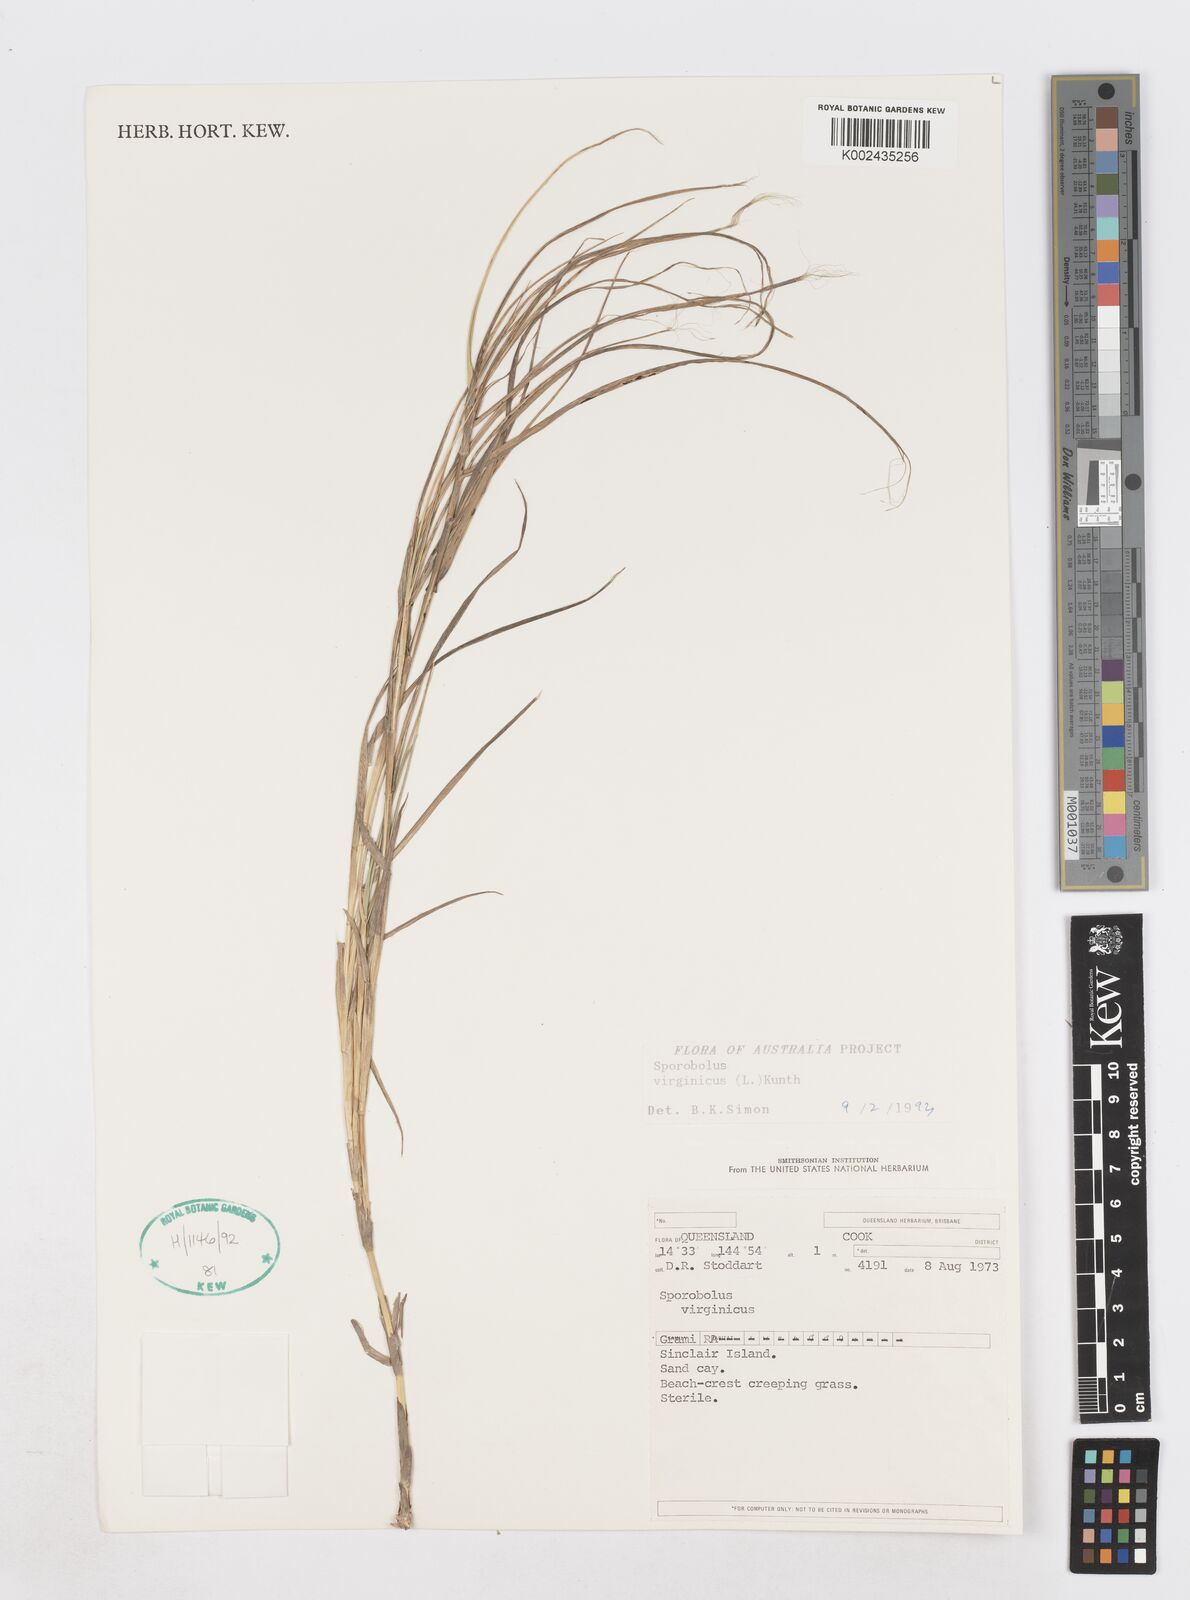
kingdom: Plantae
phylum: Tracheophyta
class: Liliopsida
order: Poales
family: Poaceae
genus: Sporobolus
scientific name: Sporobolus virginicus
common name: Beach dropseed
